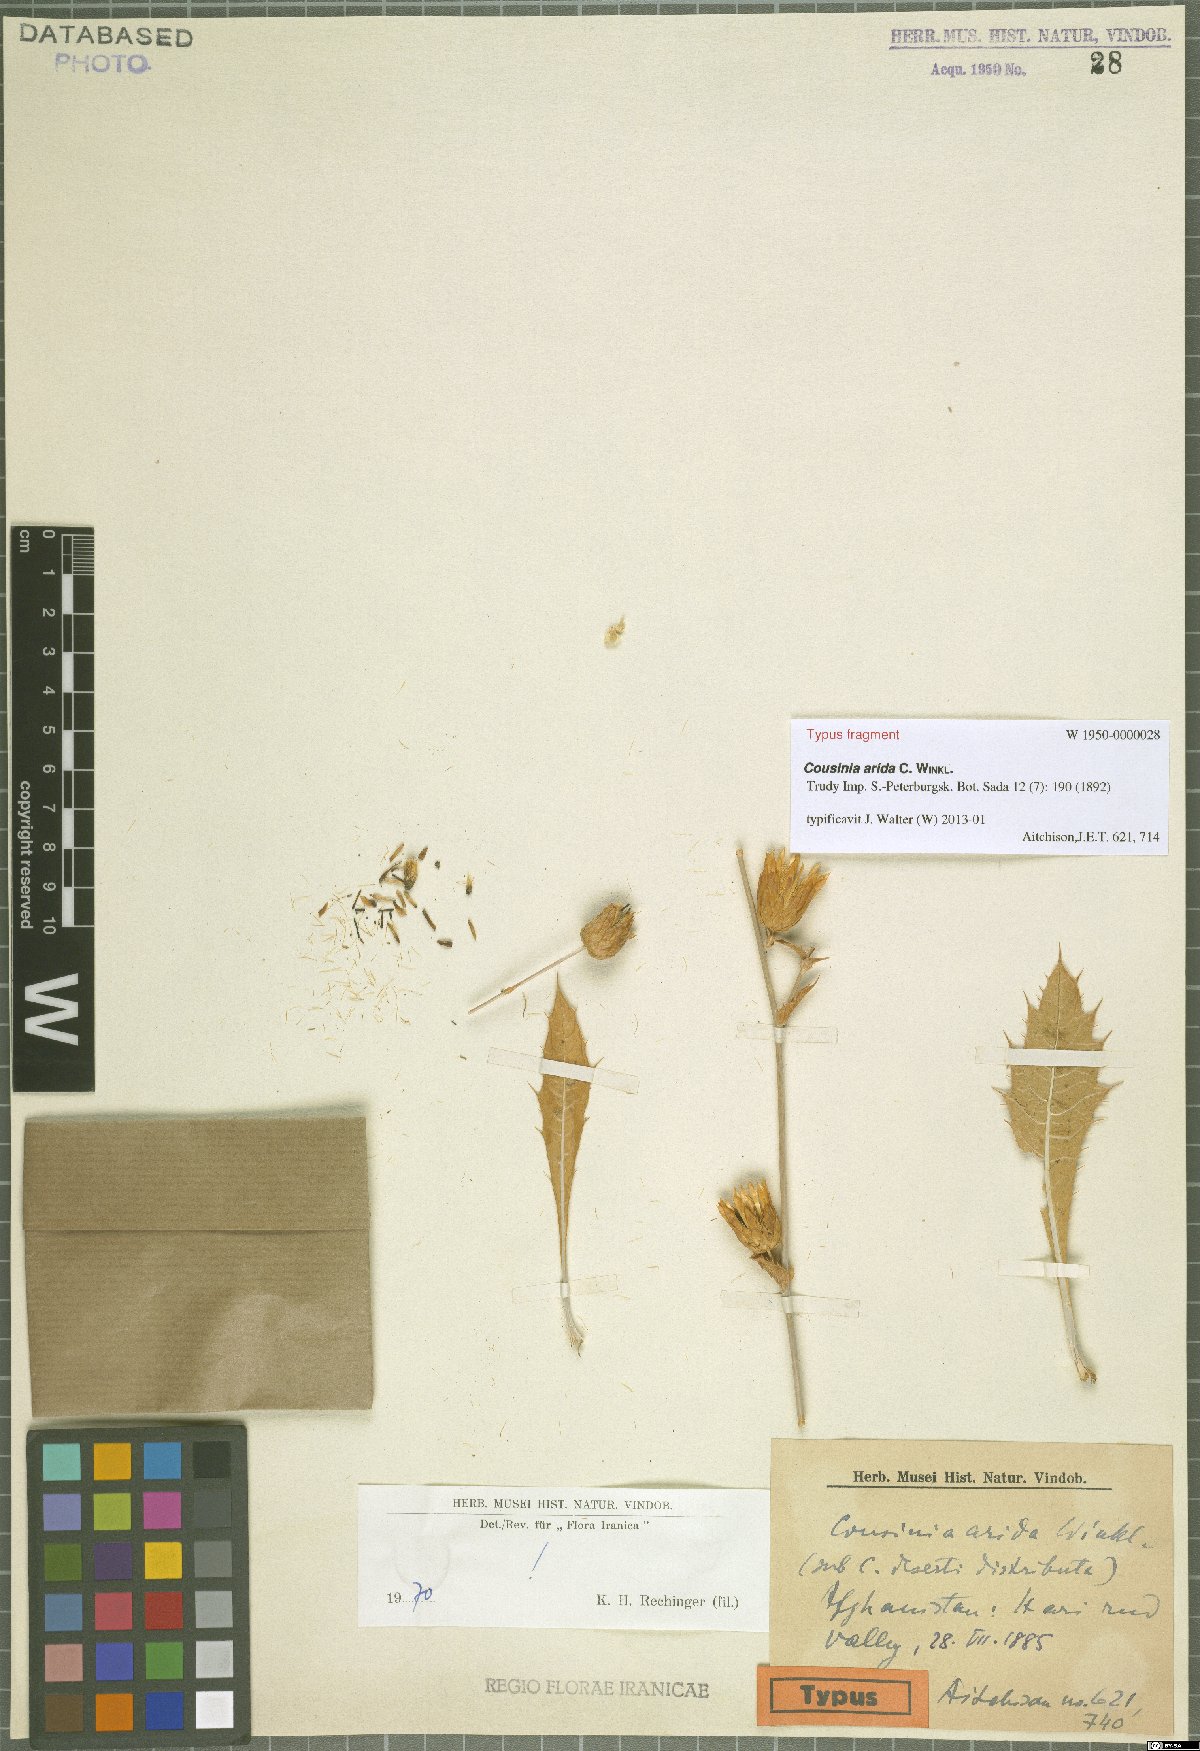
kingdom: Plantae
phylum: Tracheophyta
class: Magnoliopsida
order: Asterales
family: Asteraceae
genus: Cousinia
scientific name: Cousinia arida
